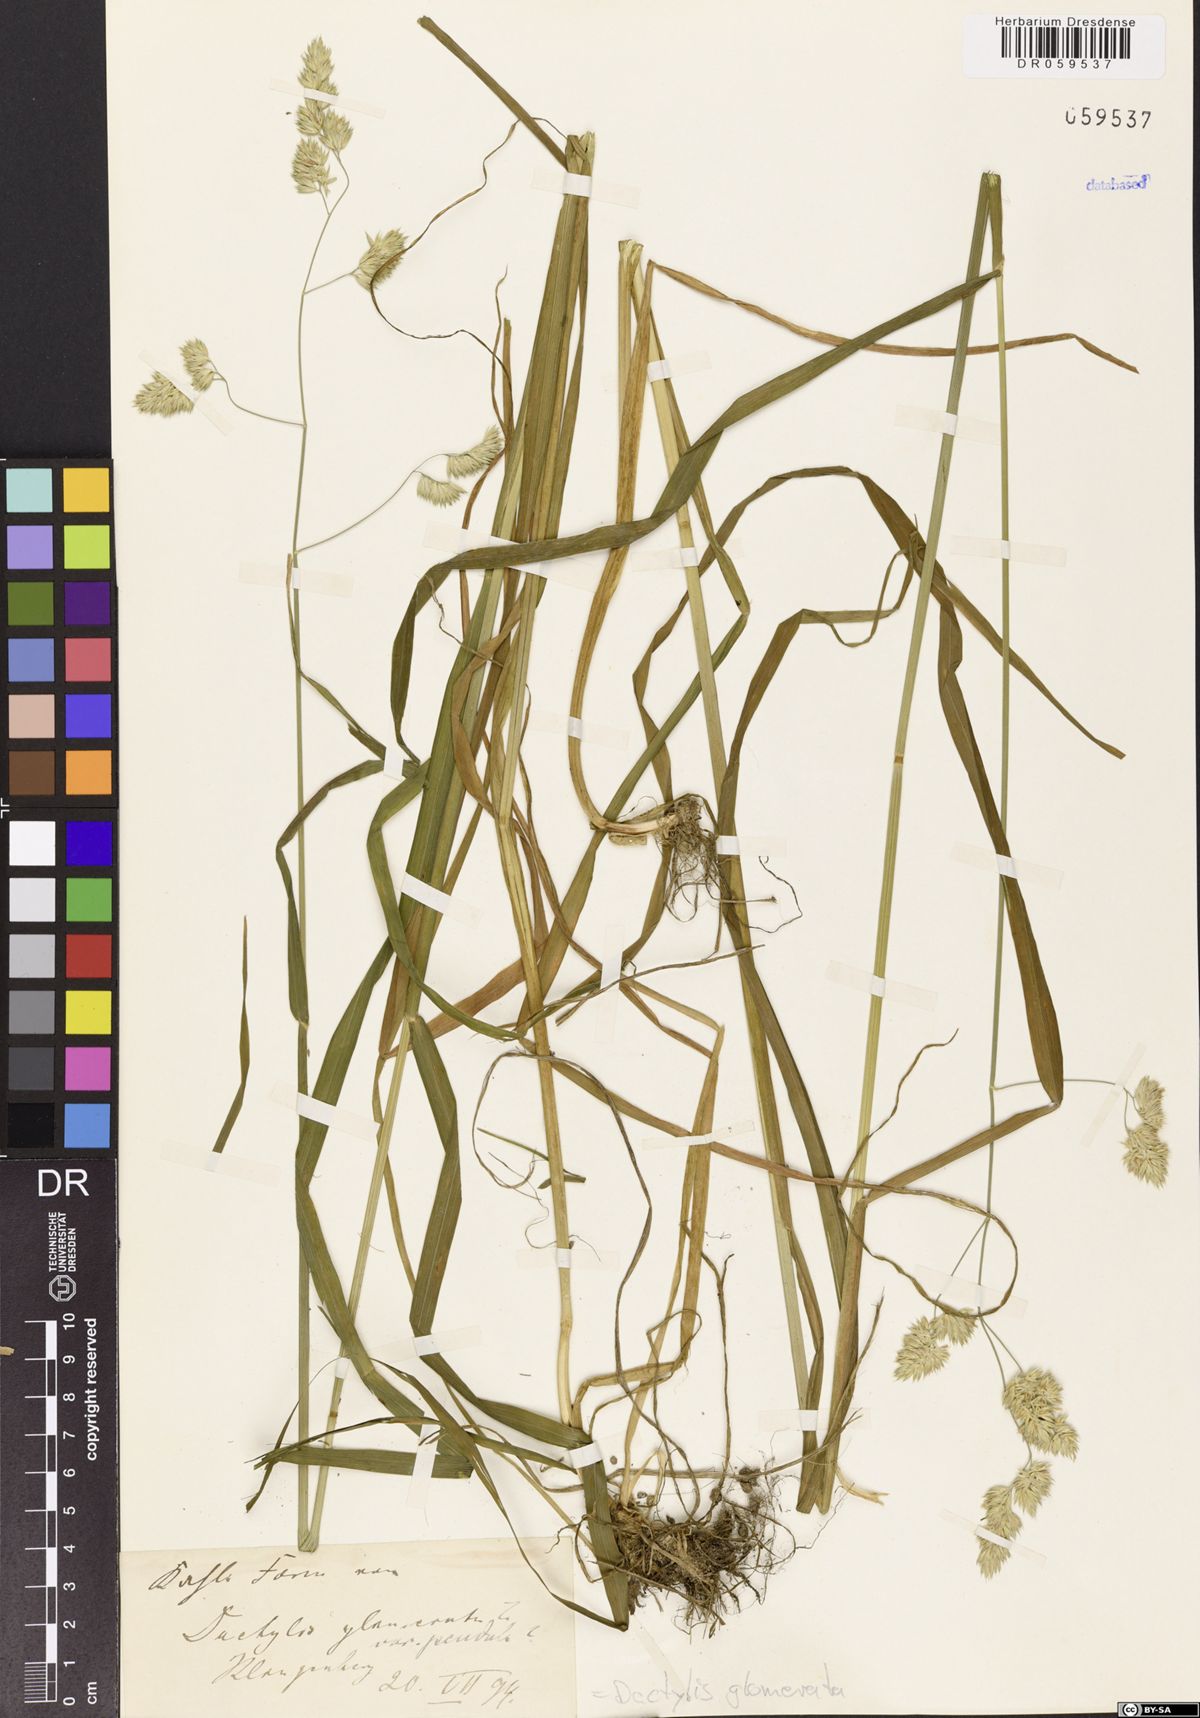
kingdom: Plantae
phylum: Tracheophyta
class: Liliopsida
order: Poales
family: Poaceae
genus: Dactylis
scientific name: Dactylis glomerata
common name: Orchardgrass
